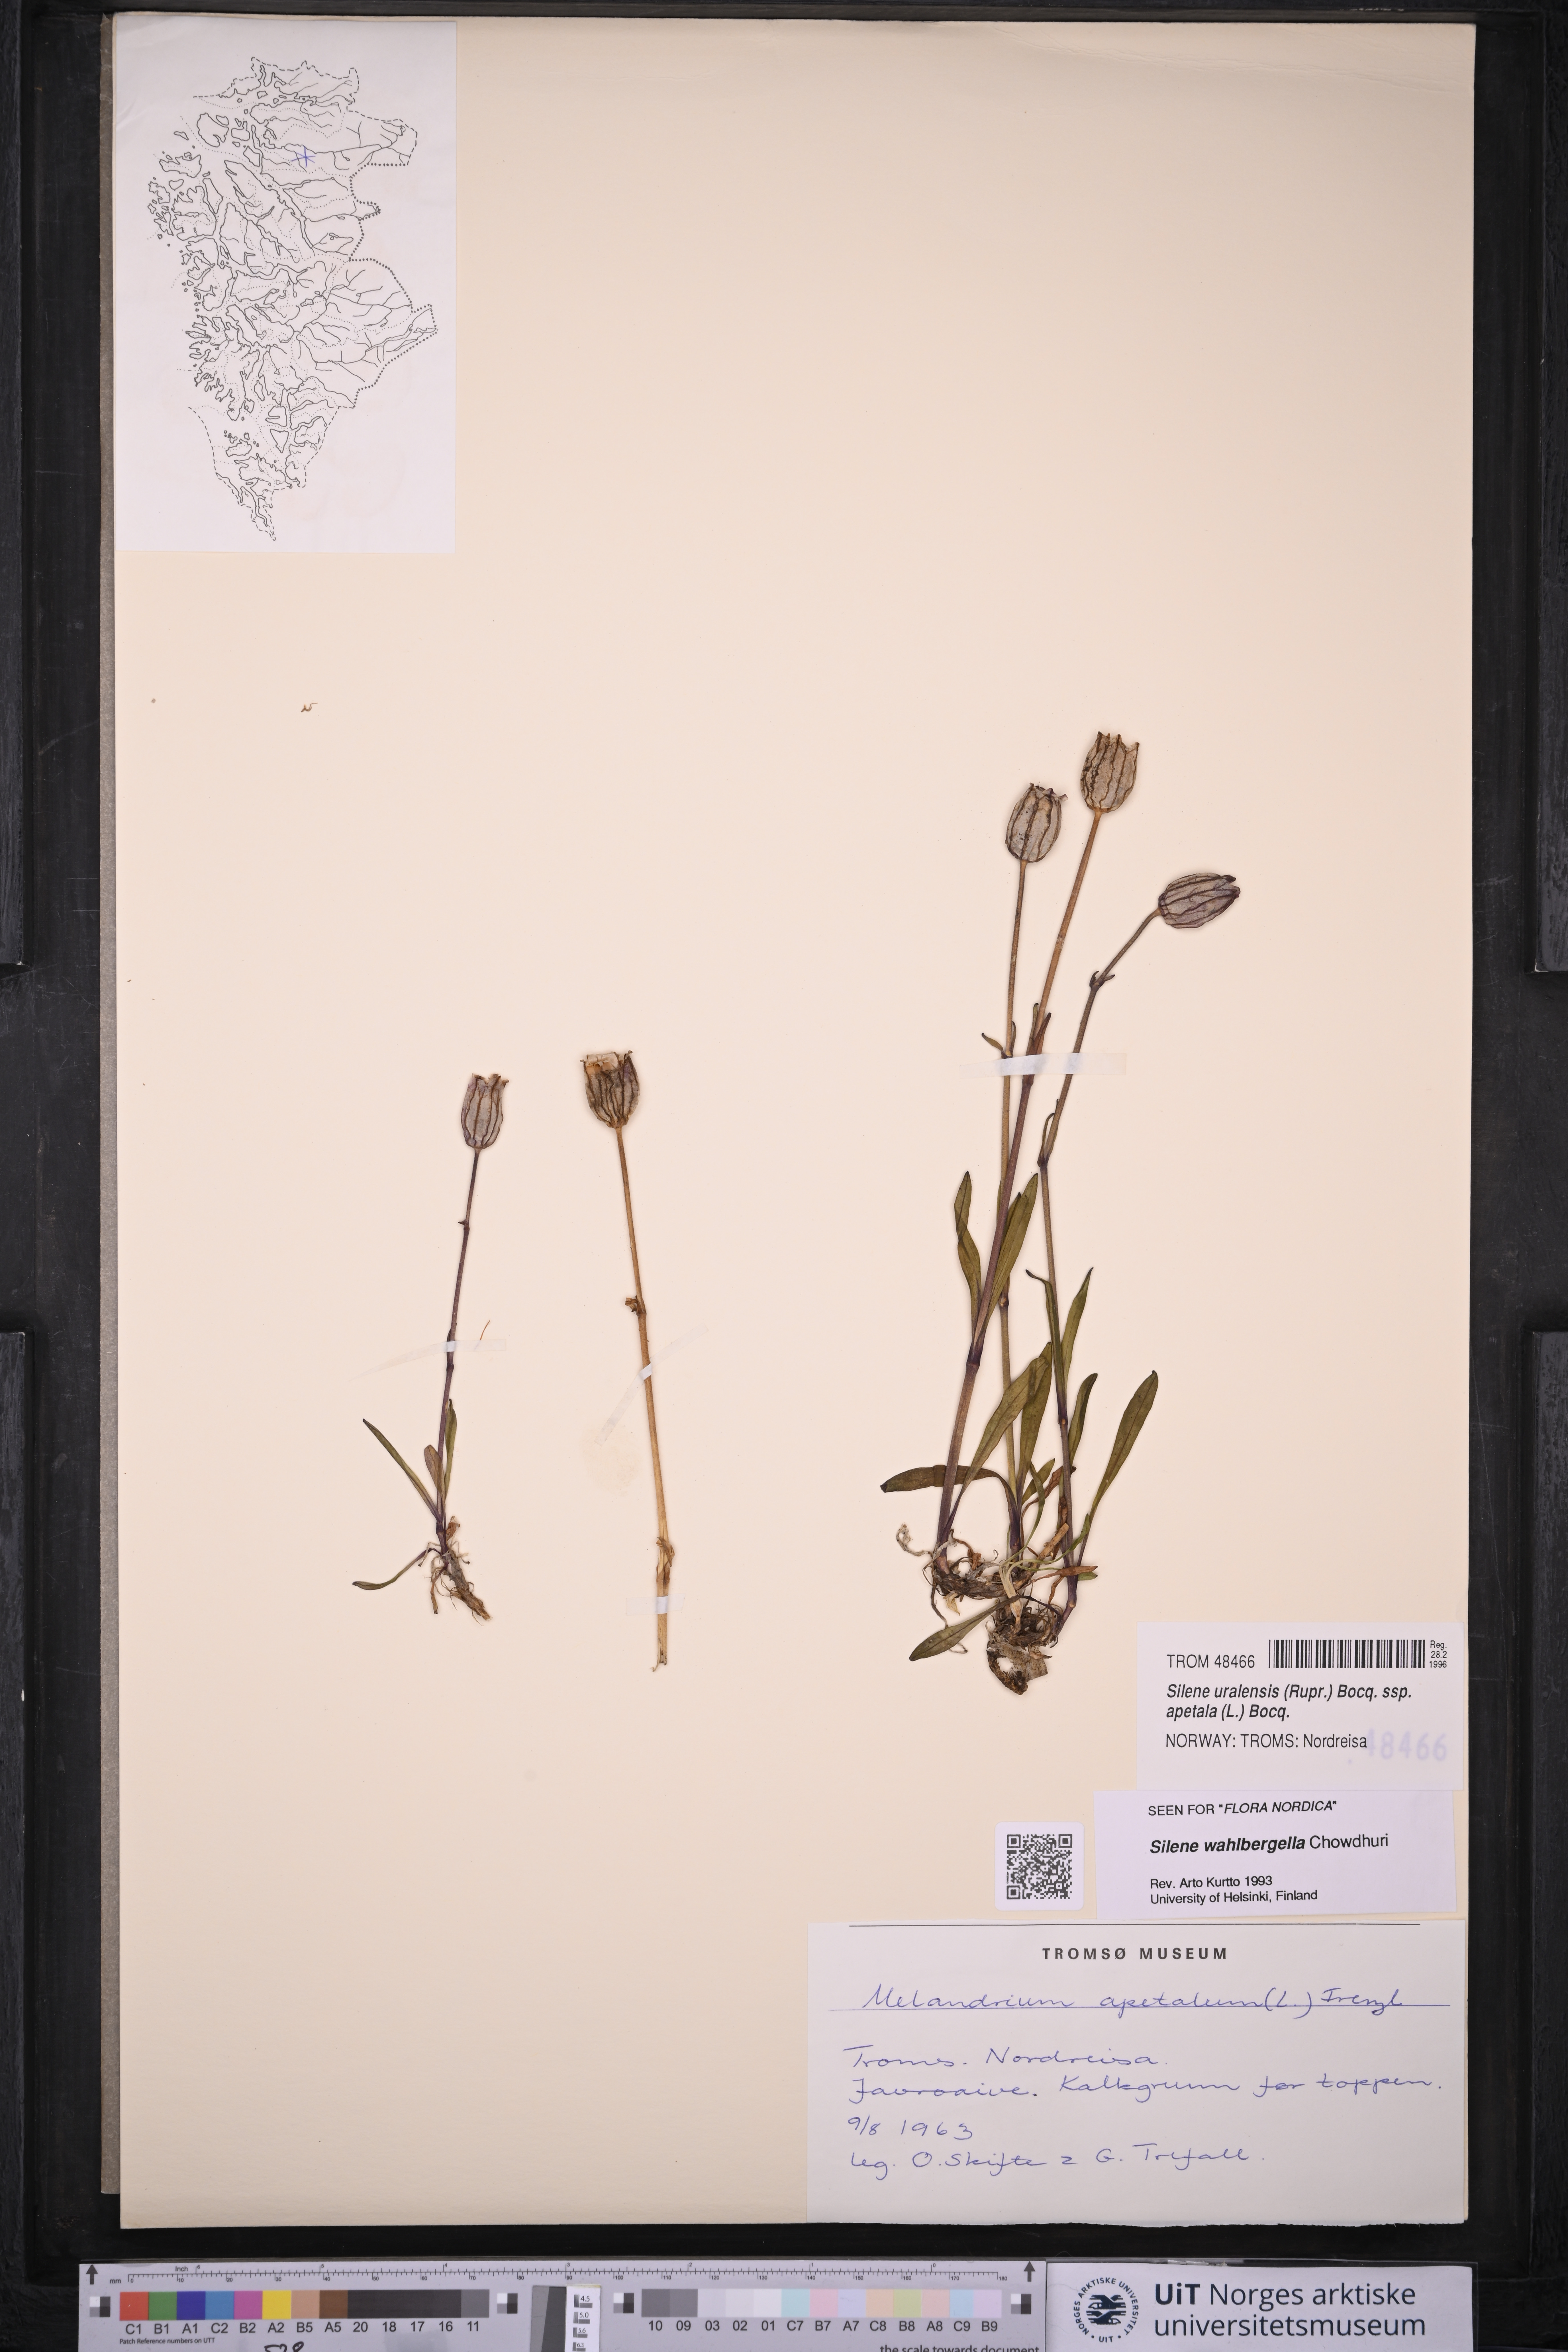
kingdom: Plantae
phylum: Tracheophyta
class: Magnoliopsida
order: Caryophyllales
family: Caryophyllaceae
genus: Silene
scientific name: Silene wahlbergella
